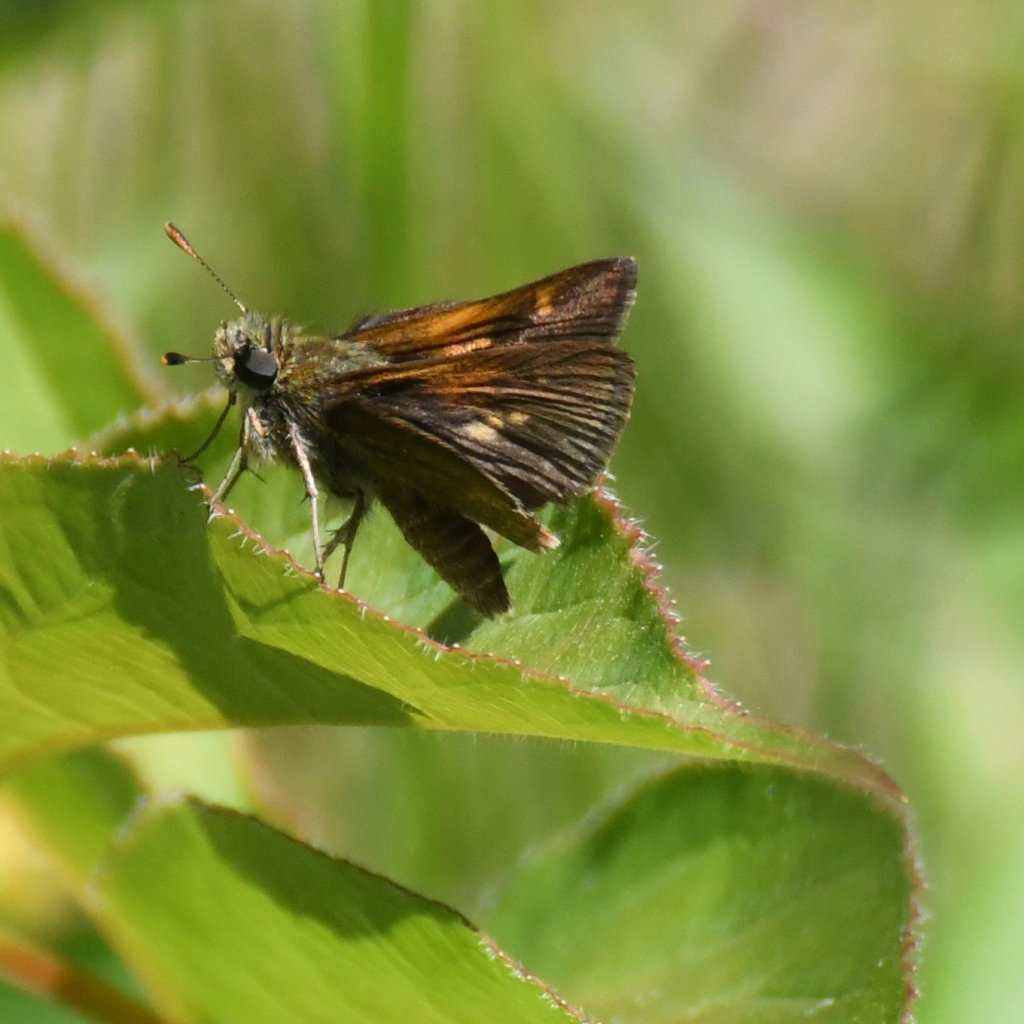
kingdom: Animalia
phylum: Arthropoda
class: Insecta
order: Lepidoptera
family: Hesperiidae
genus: Polites
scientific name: Polites themistocles
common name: Tawny-edged Skipper
